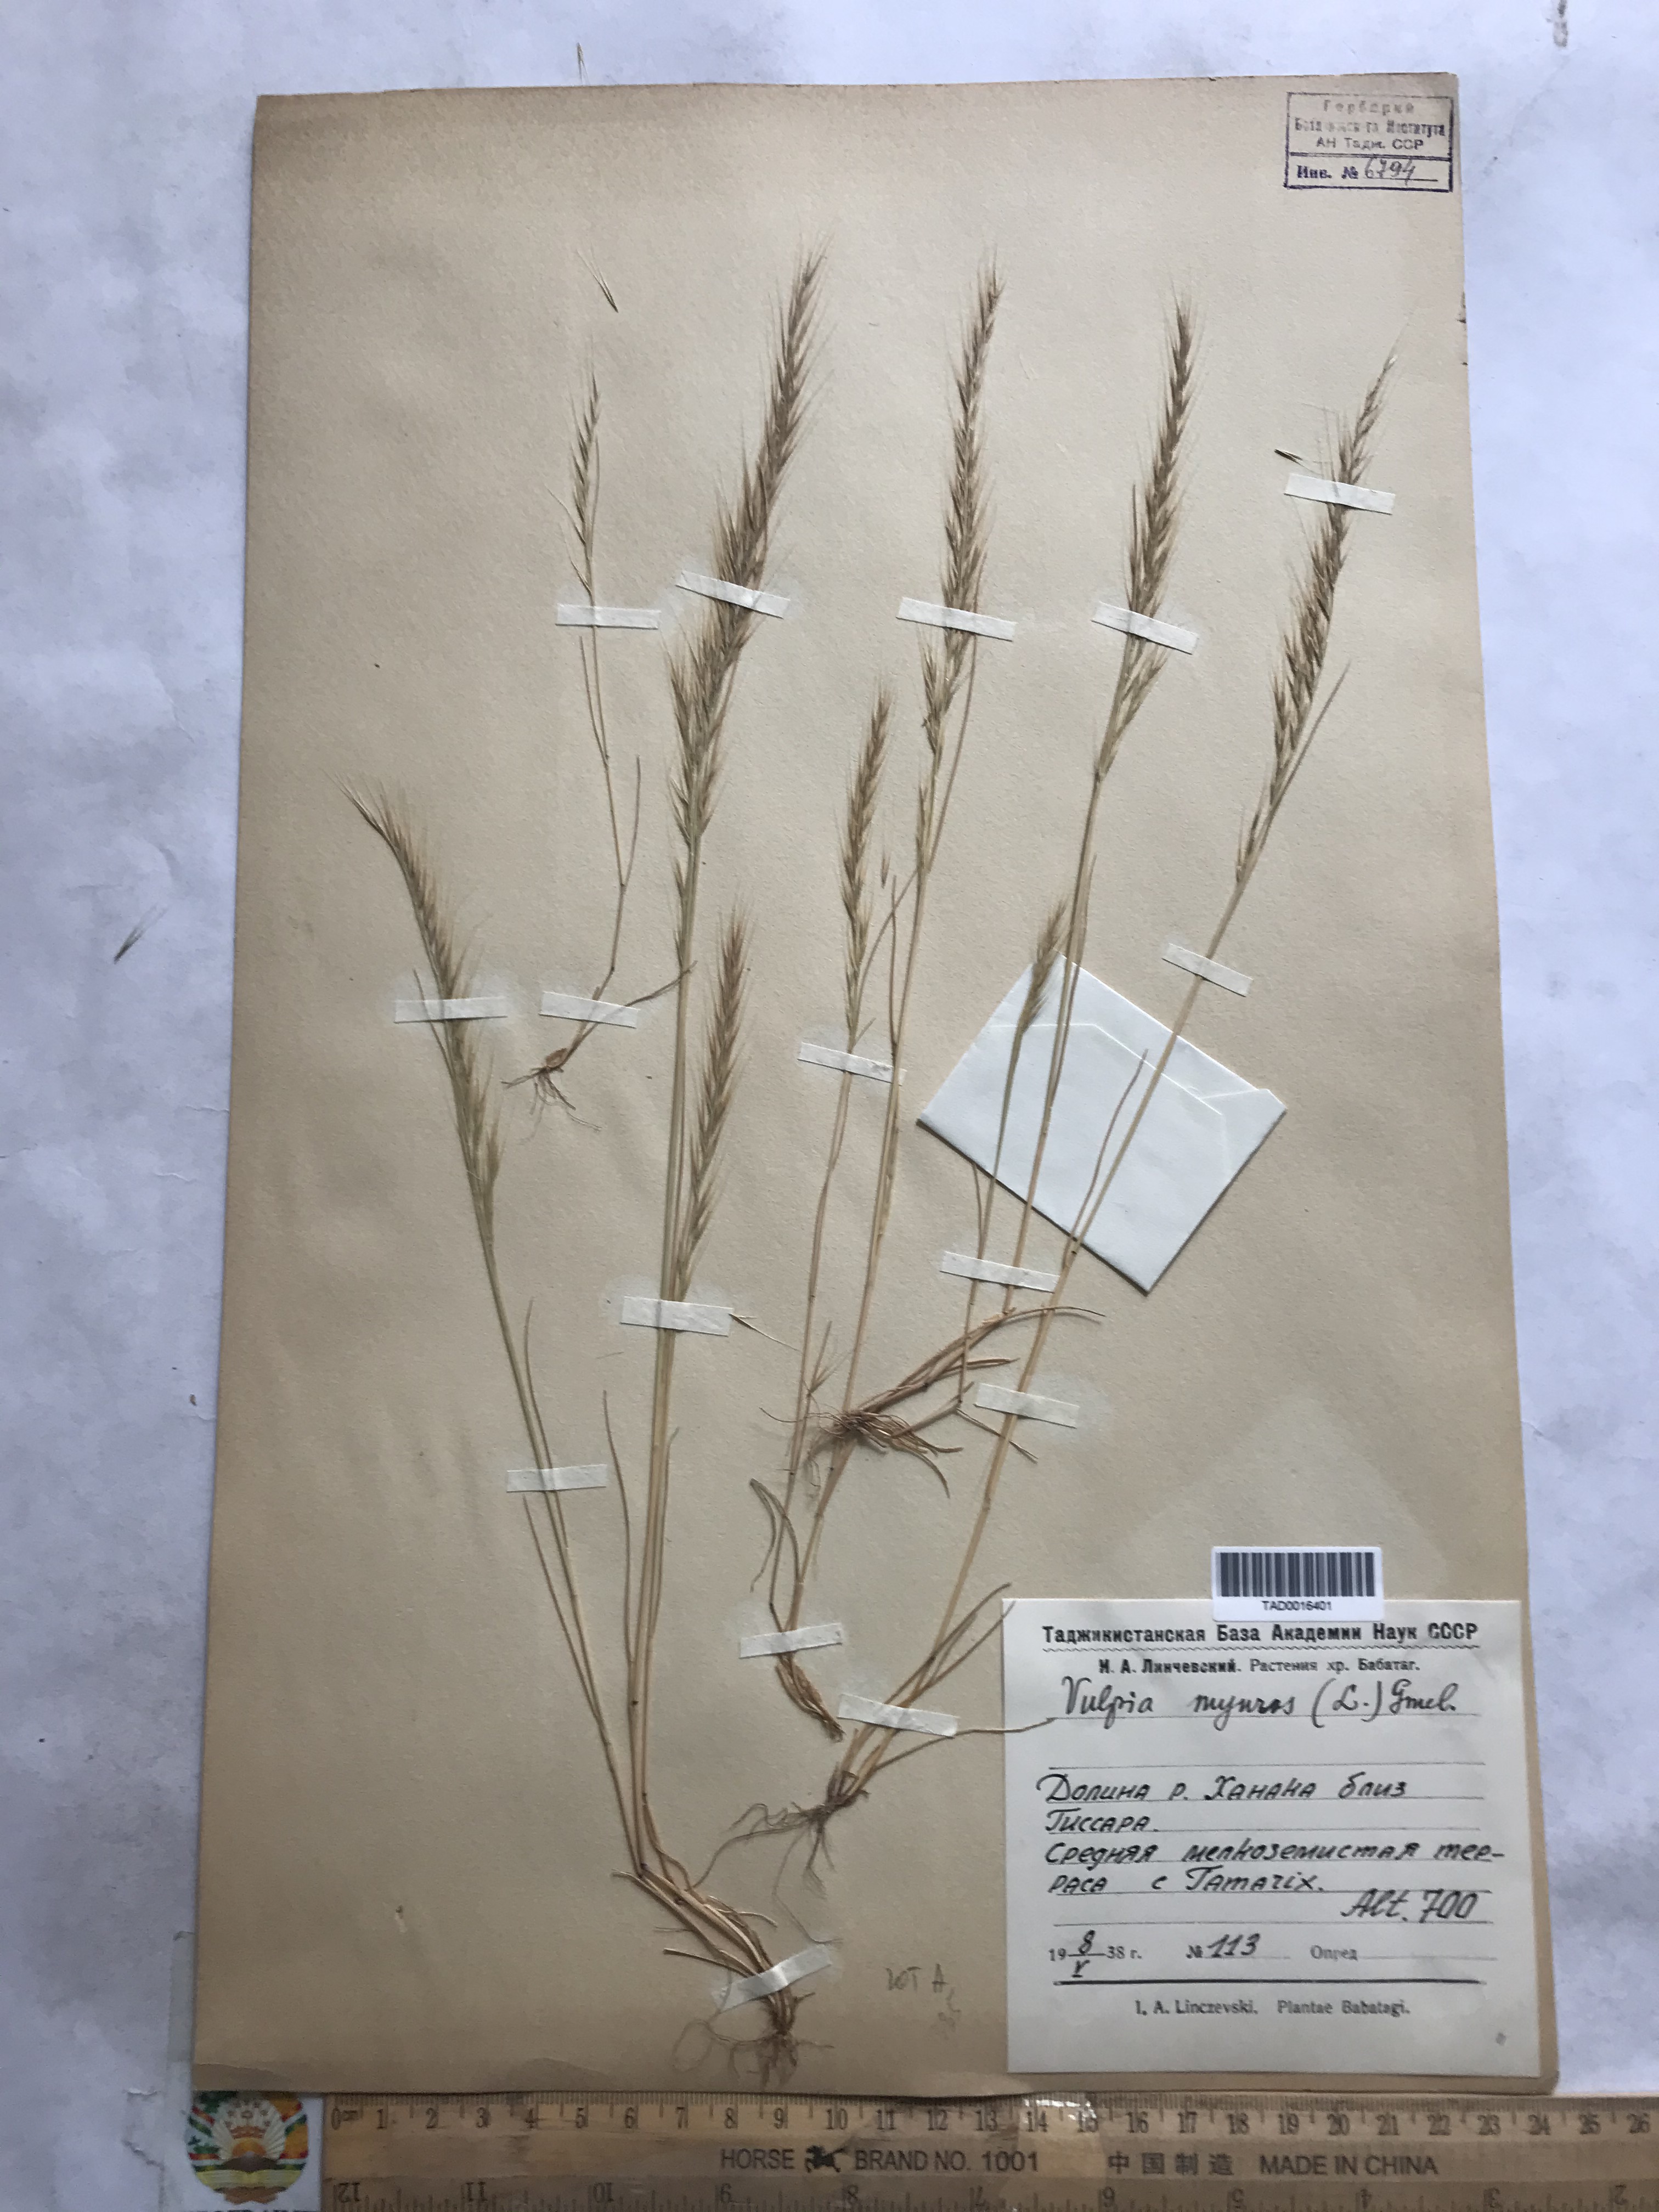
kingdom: Plantae
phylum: Tracheophyta
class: Liliopsida
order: Poales
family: Poaceae
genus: Festuca
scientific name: Festuca myuros
